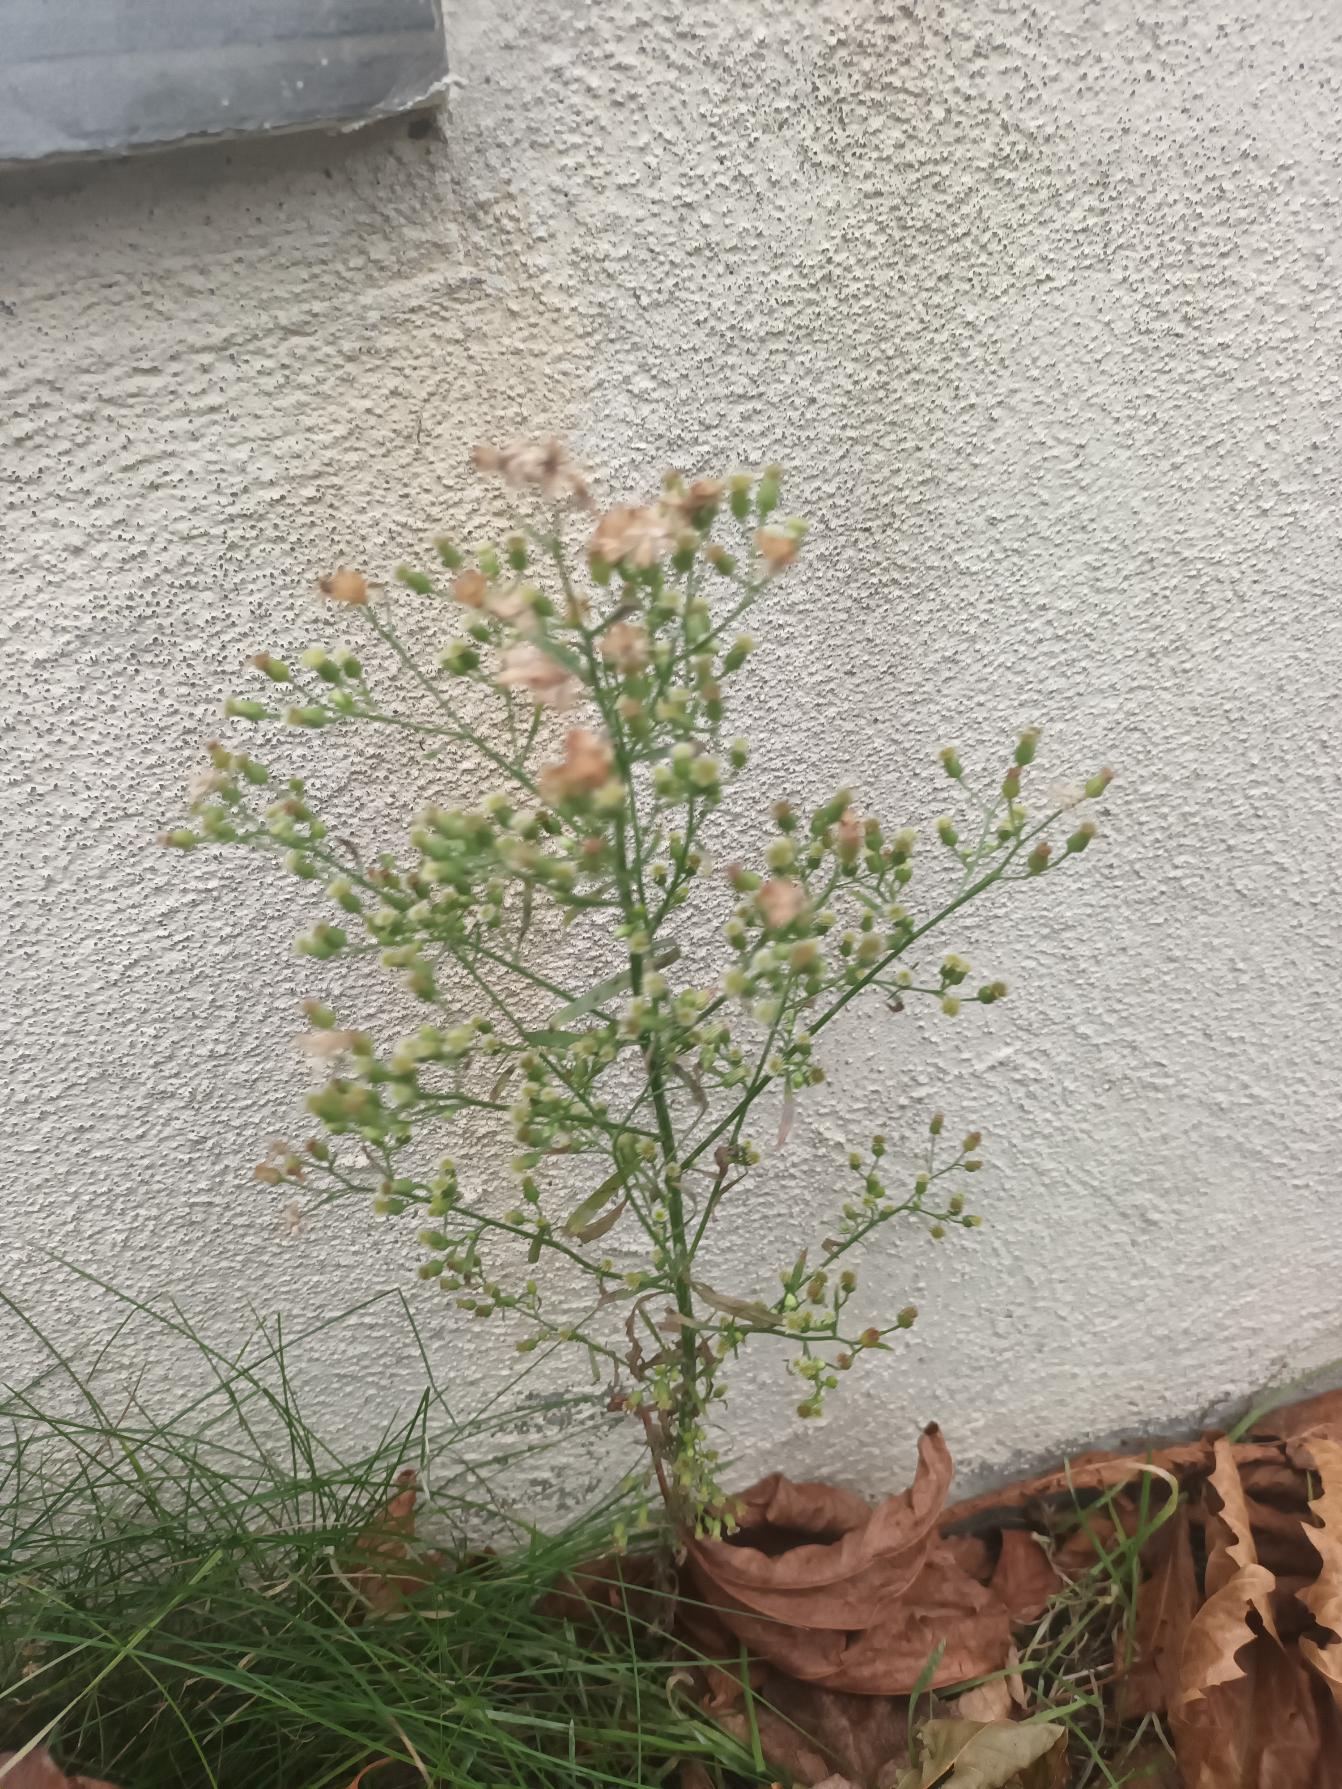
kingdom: Plantae
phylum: Tracheophyta
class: Magnoliopsida
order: Asterales
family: Asteraceae
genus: Erigeron
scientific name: Erigeron canadensis
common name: Kanadisk bakkestjerne
